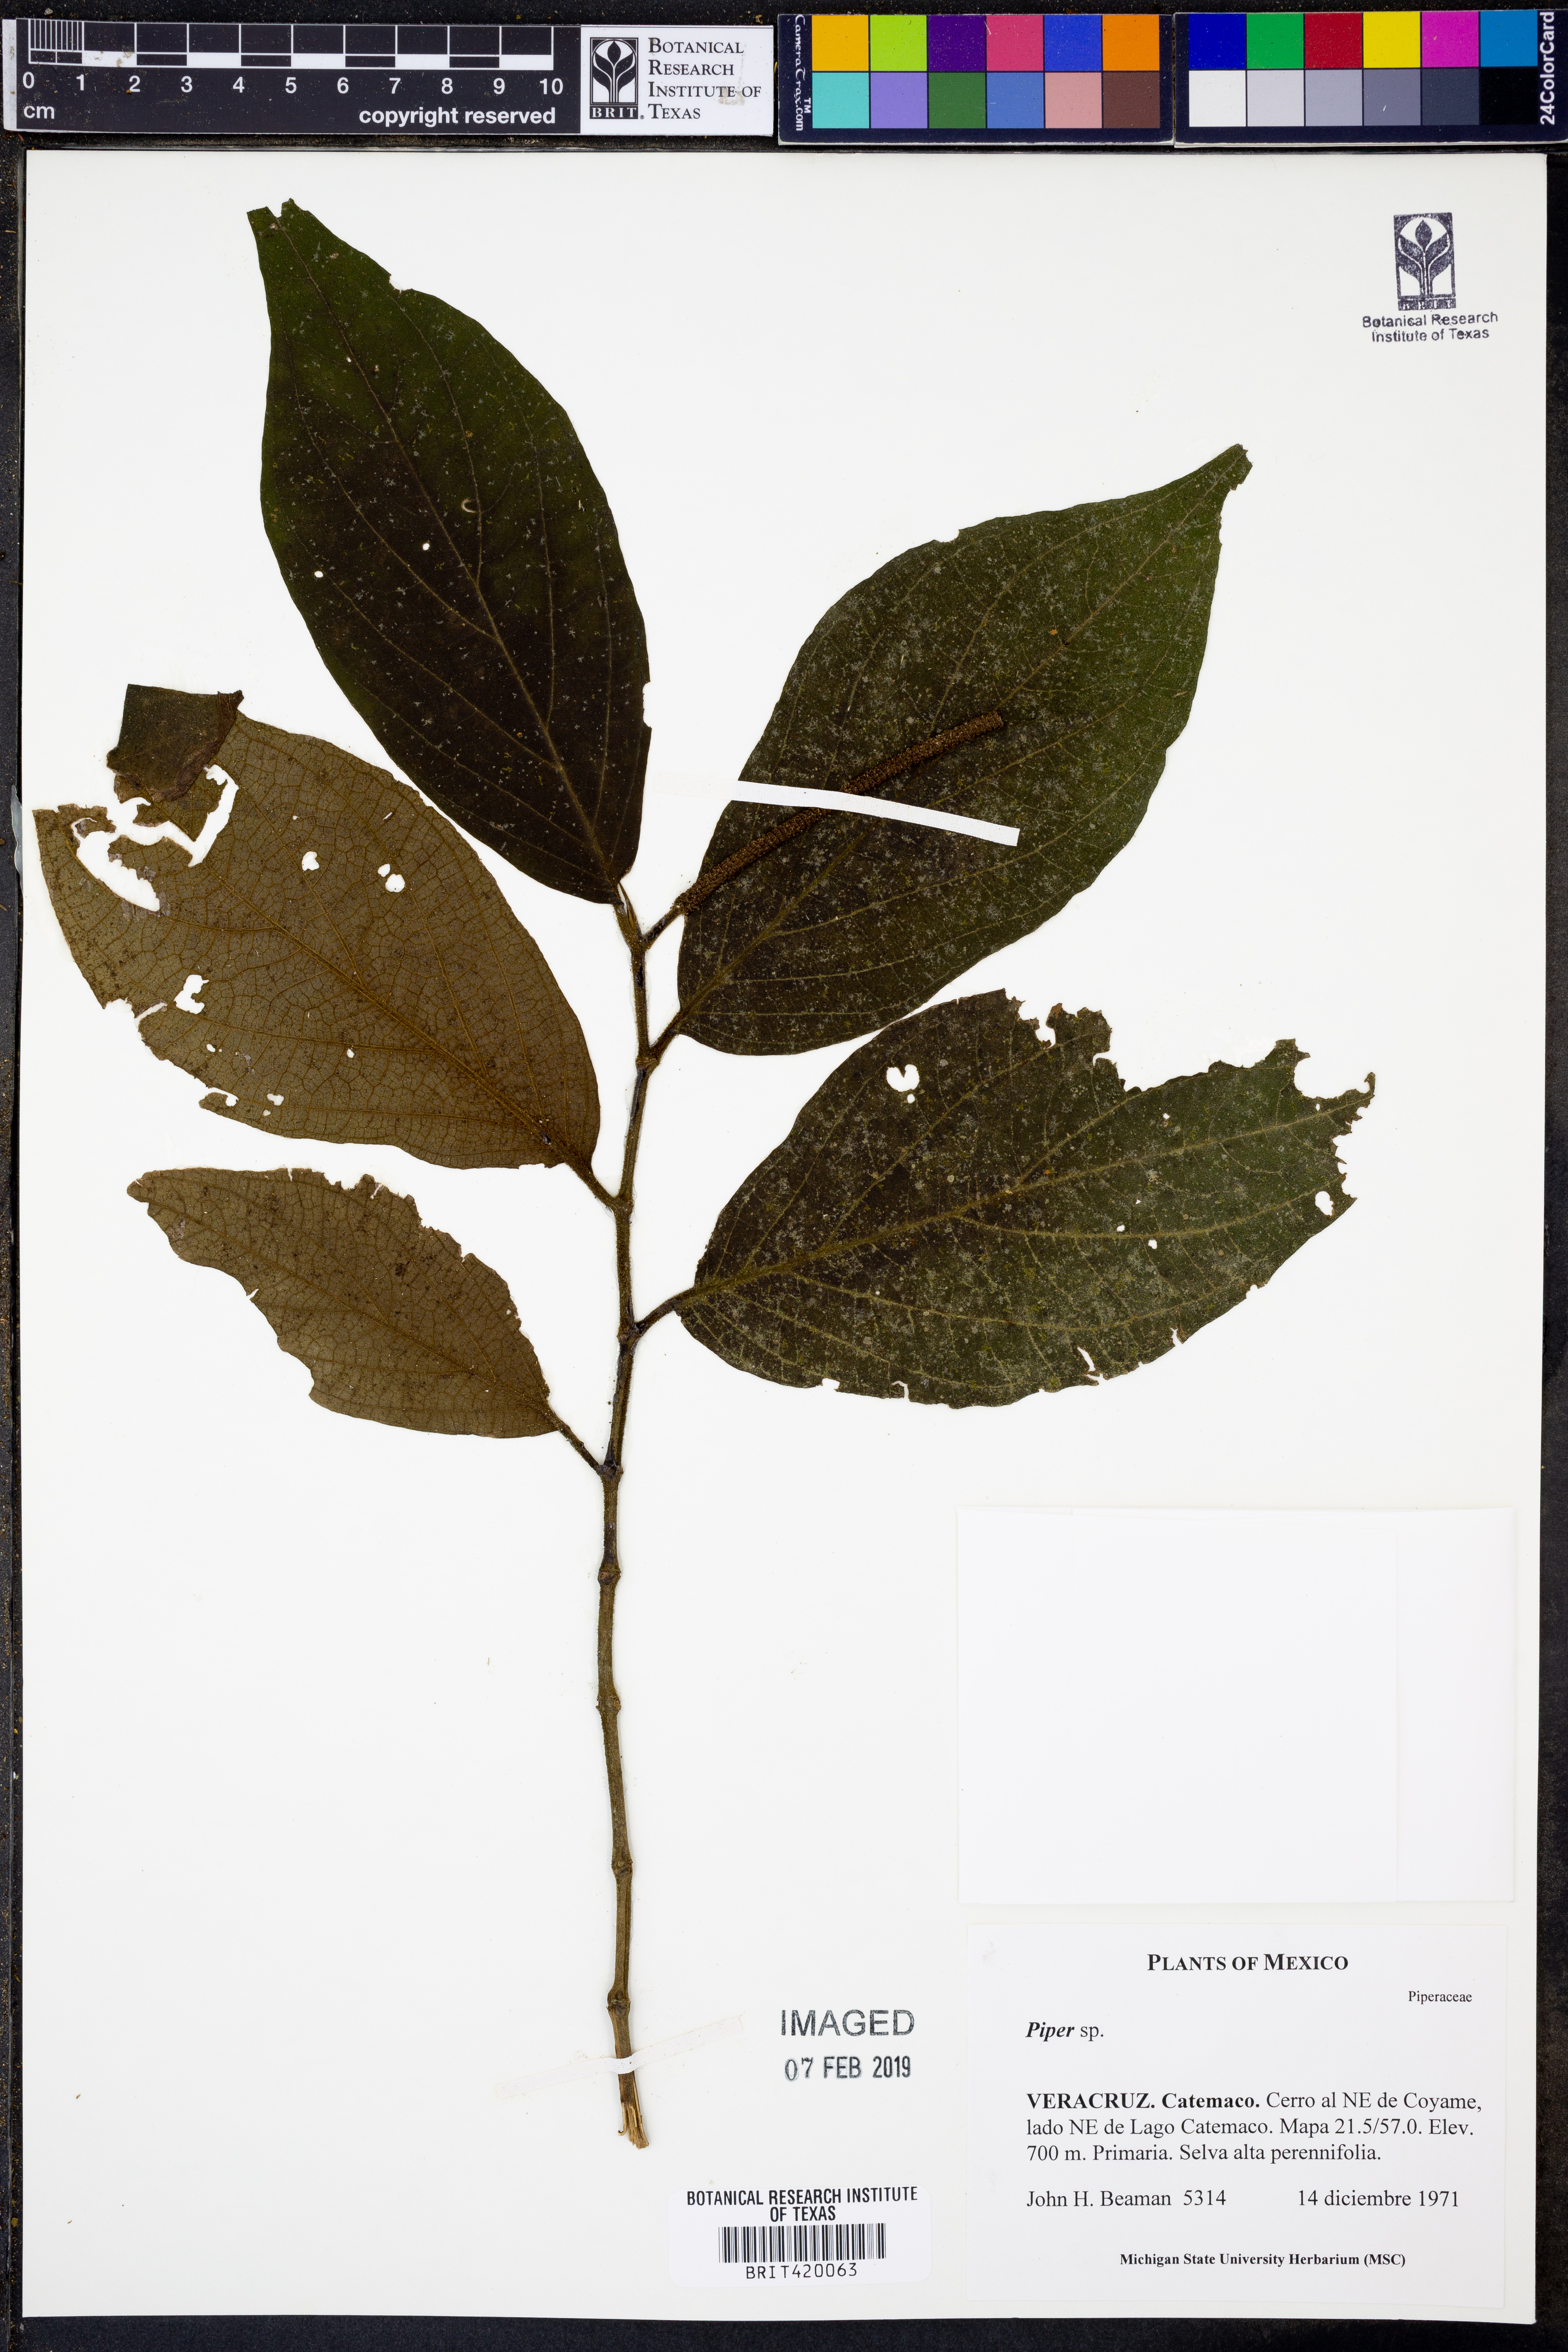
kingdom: Plantae
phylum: Tracheophyta
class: Magnoliopsida
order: Piperales
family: Piperaceae
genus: Piper
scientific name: Piper
